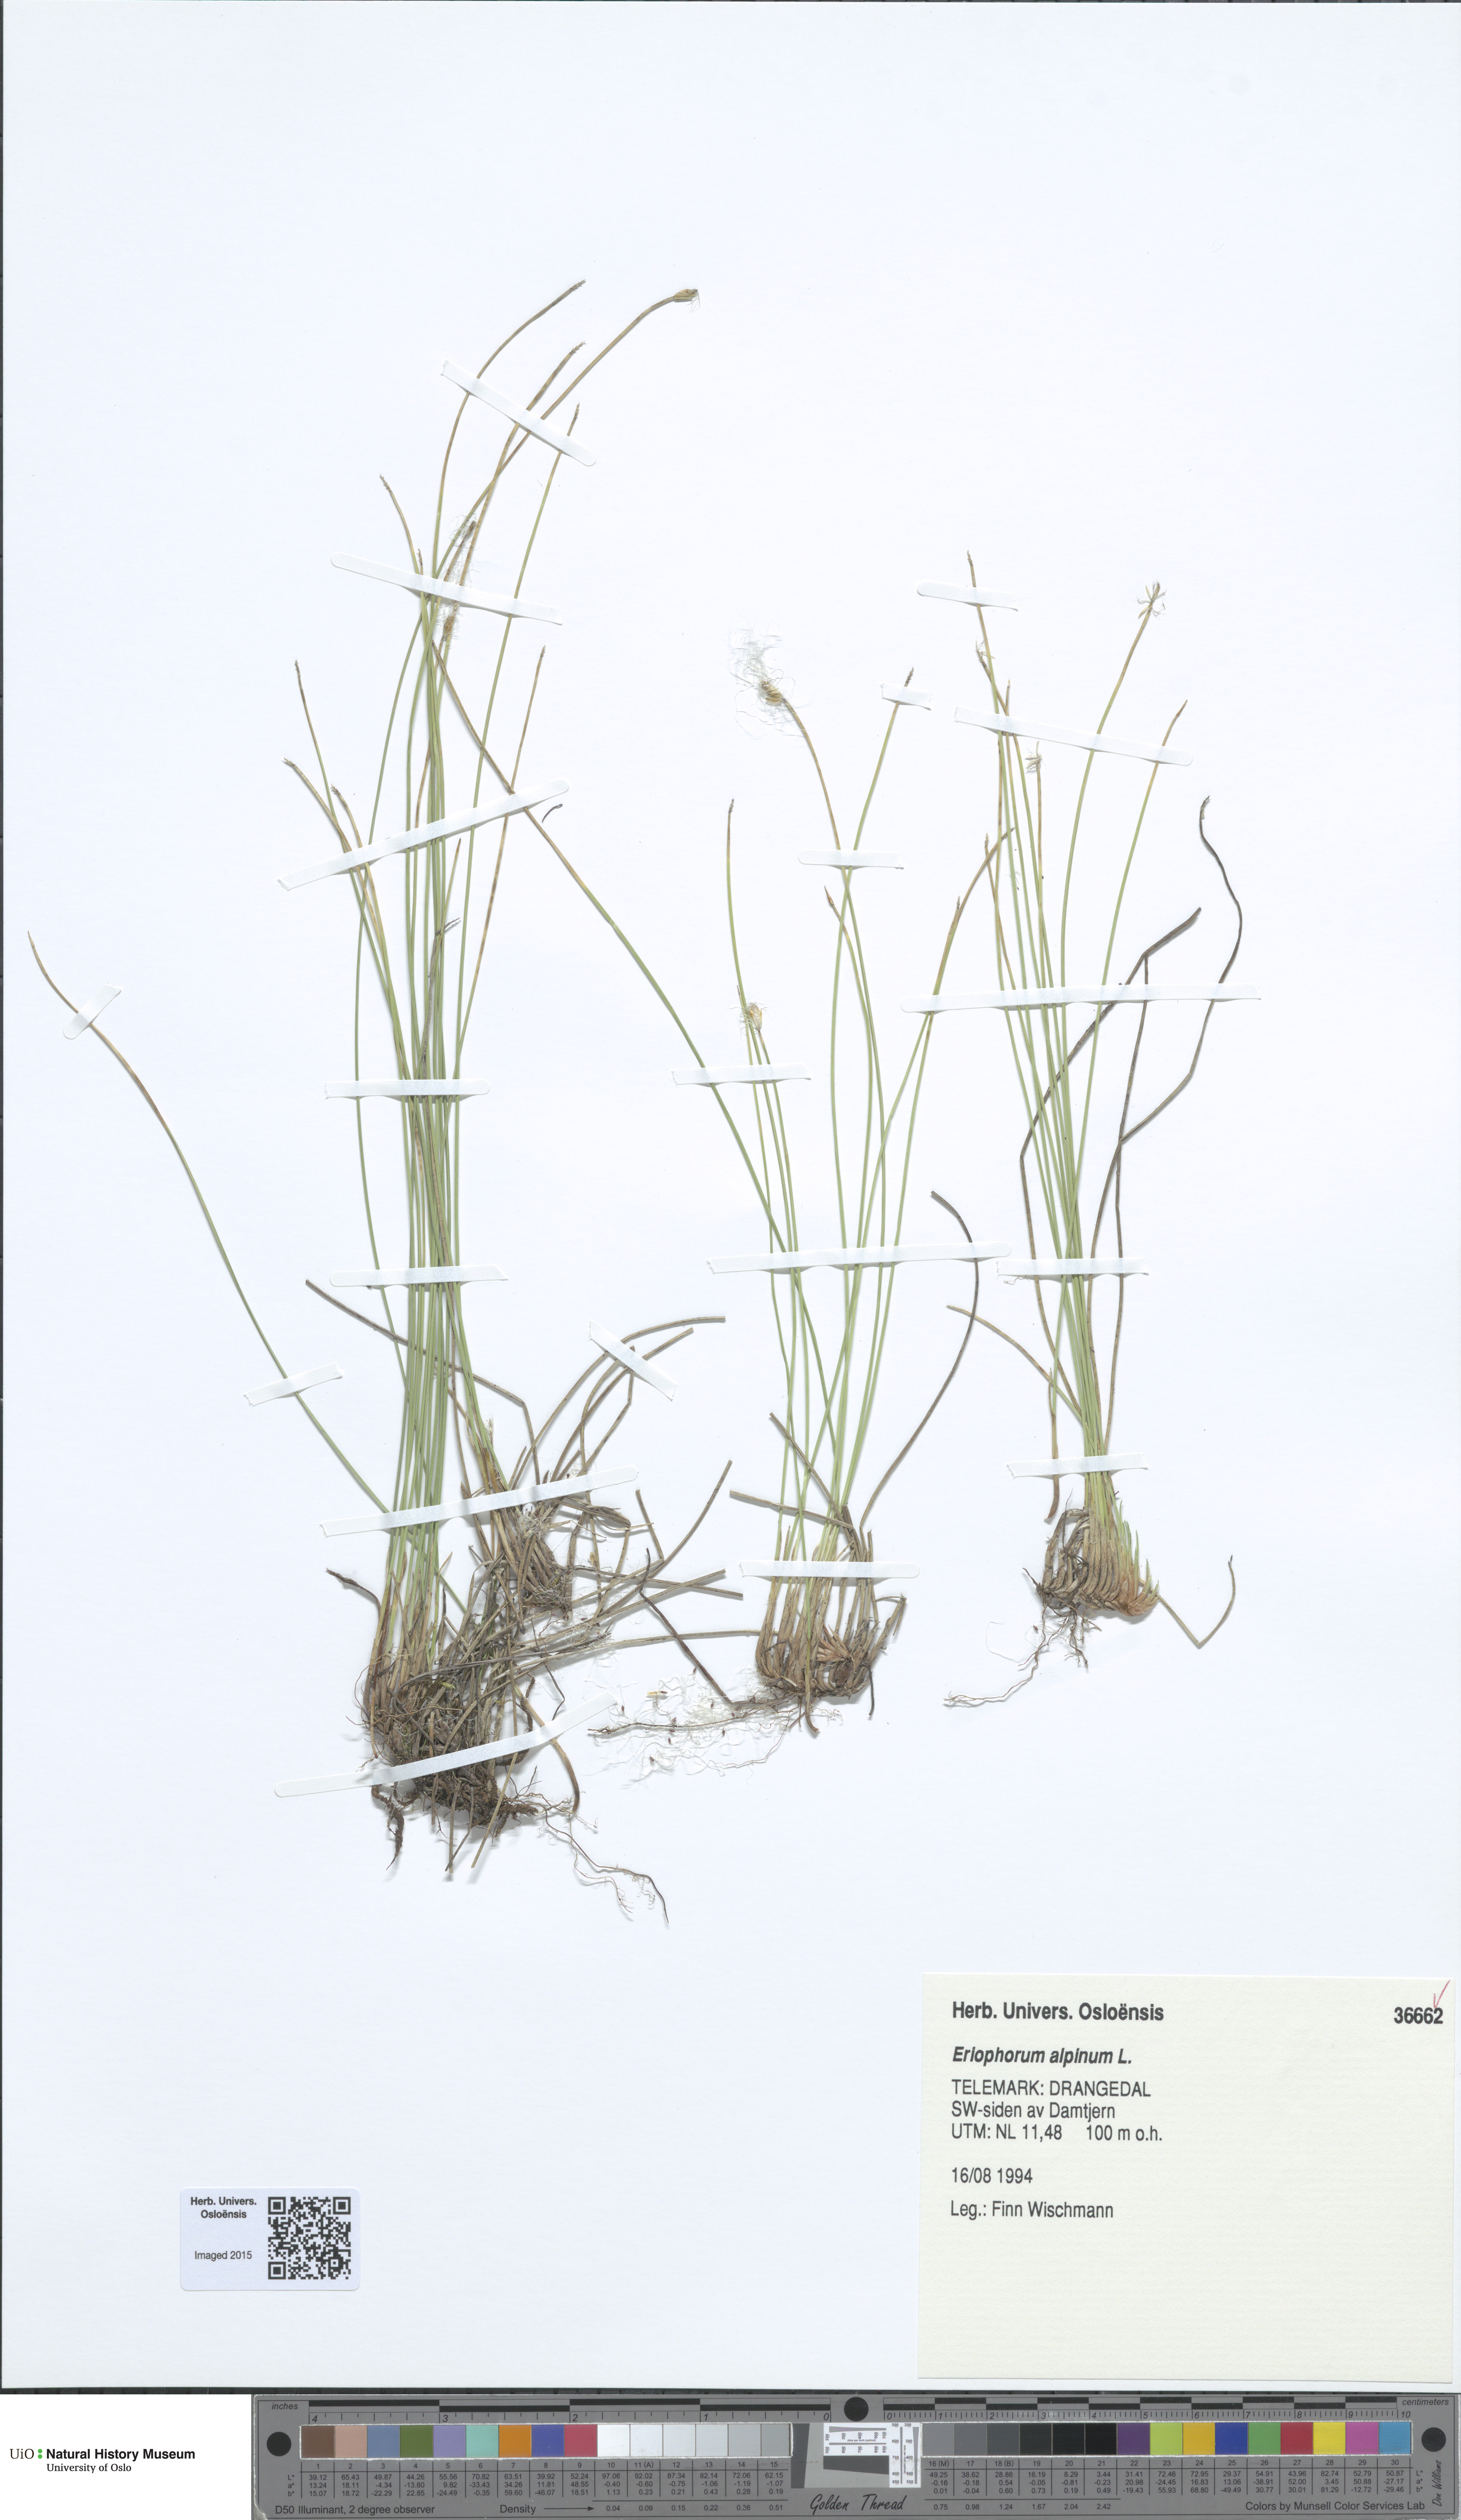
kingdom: Plantae
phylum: Tracheophyta
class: Liliopsida
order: Poales
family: Cyperaceae
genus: Trichophorum
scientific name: Trichophorum alpinum
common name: Alpine bulrush
